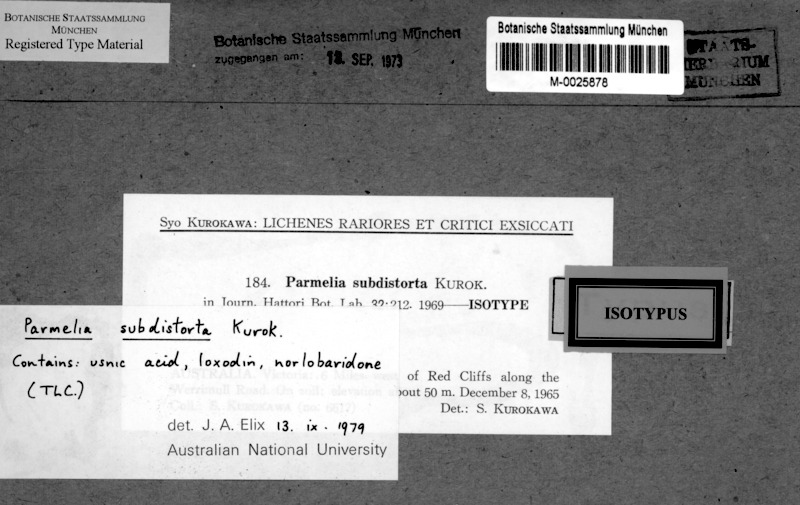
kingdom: Fungi
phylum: Ascomycota
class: Lecanoromycetes
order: Lecanorales
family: Parmeliaceae
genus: Xanthoparmelia
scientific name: Xanthoparmelia subdistorta
